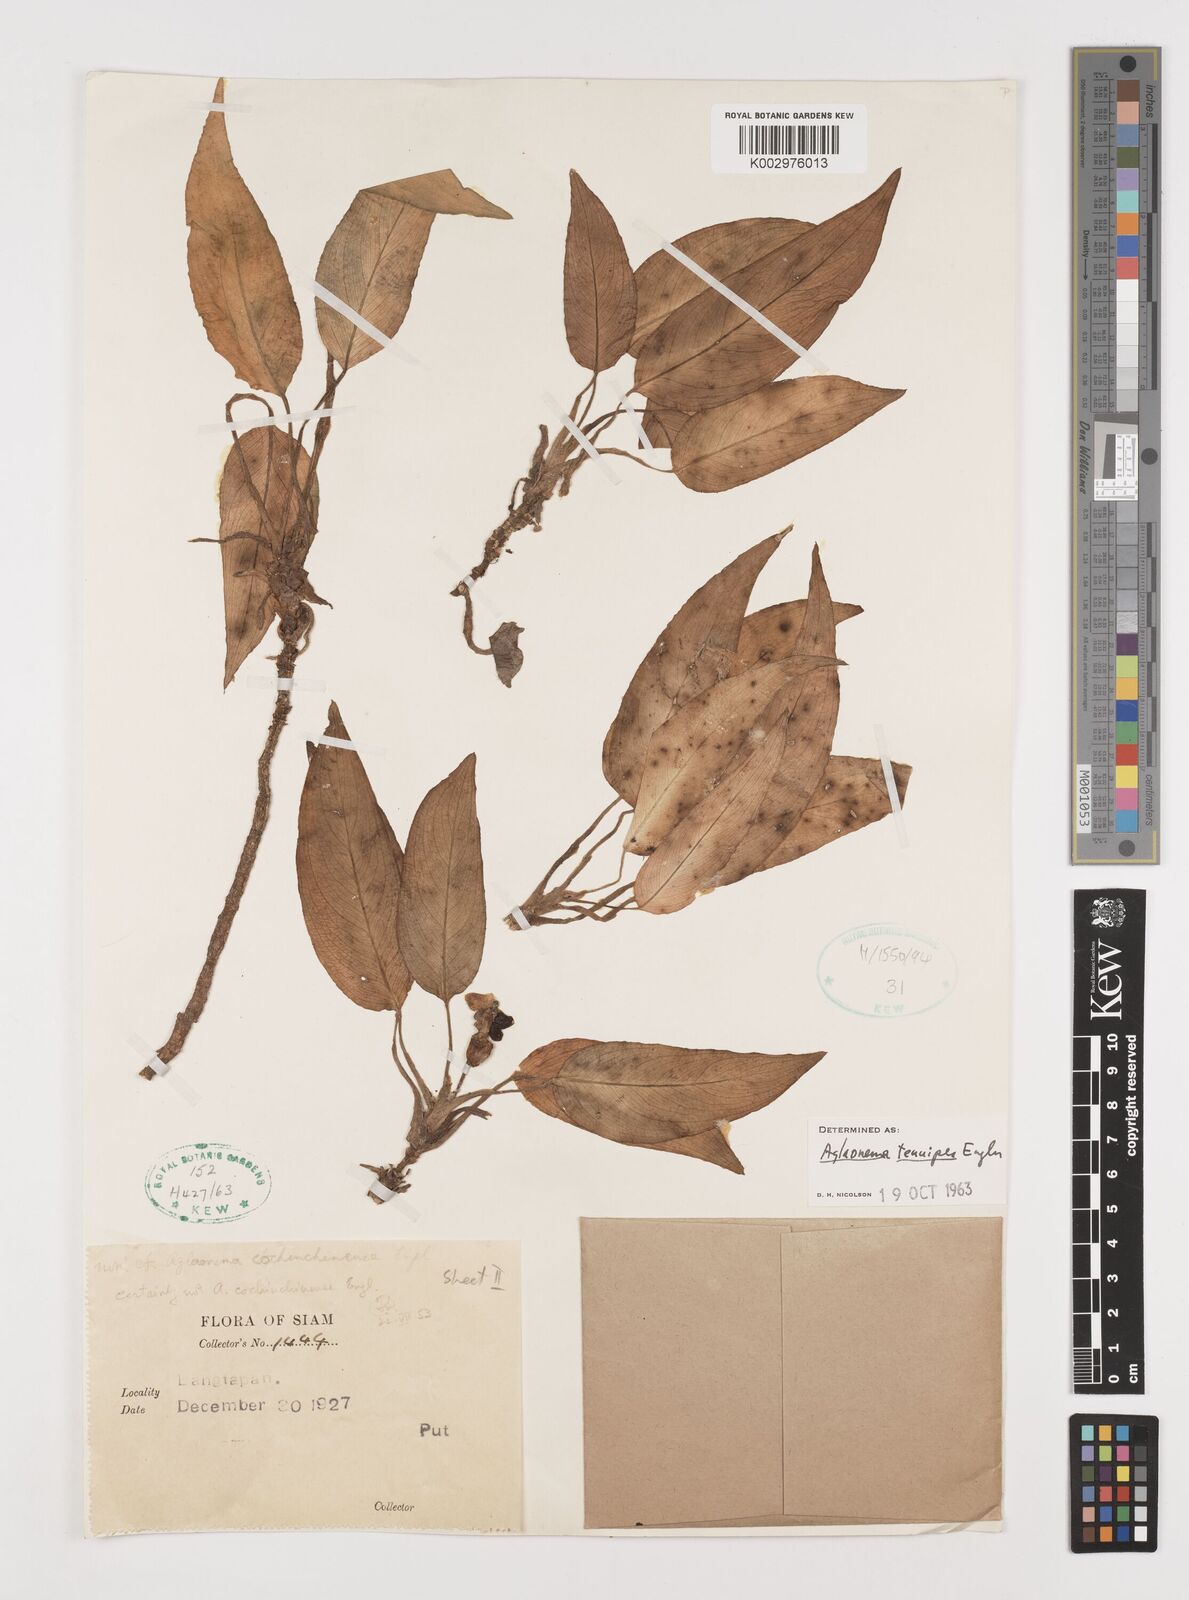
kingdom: Plantae
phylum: Tracheophyta
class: Liliopsida
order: Alismatales
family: Araceae
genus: Aglaonema
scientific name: Aglaonema simplex
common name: Malayan-sword
